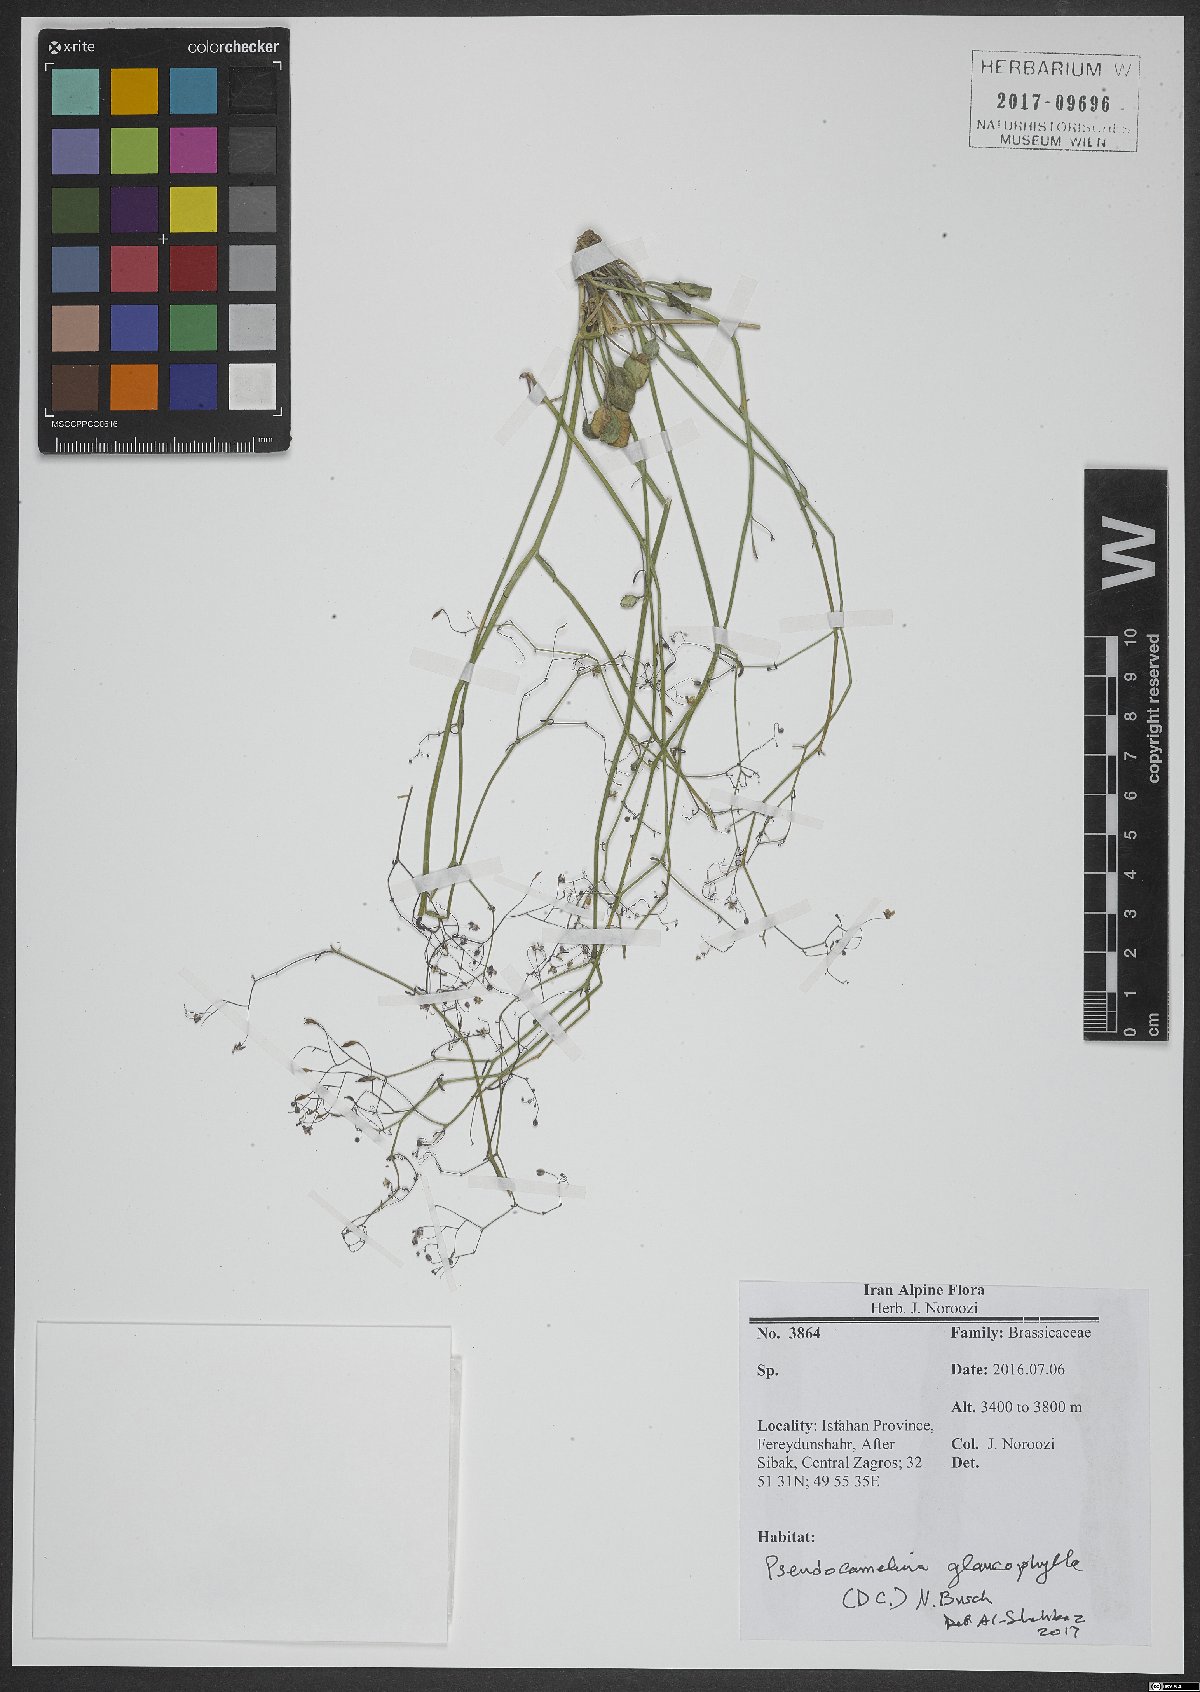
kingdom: Plantae
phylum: Tracheophyta
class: Magnoliopsida
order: Brassicales
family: Brassicaceae
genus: Pseudocamelina
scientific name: Pseudocamelina glaucophylla
